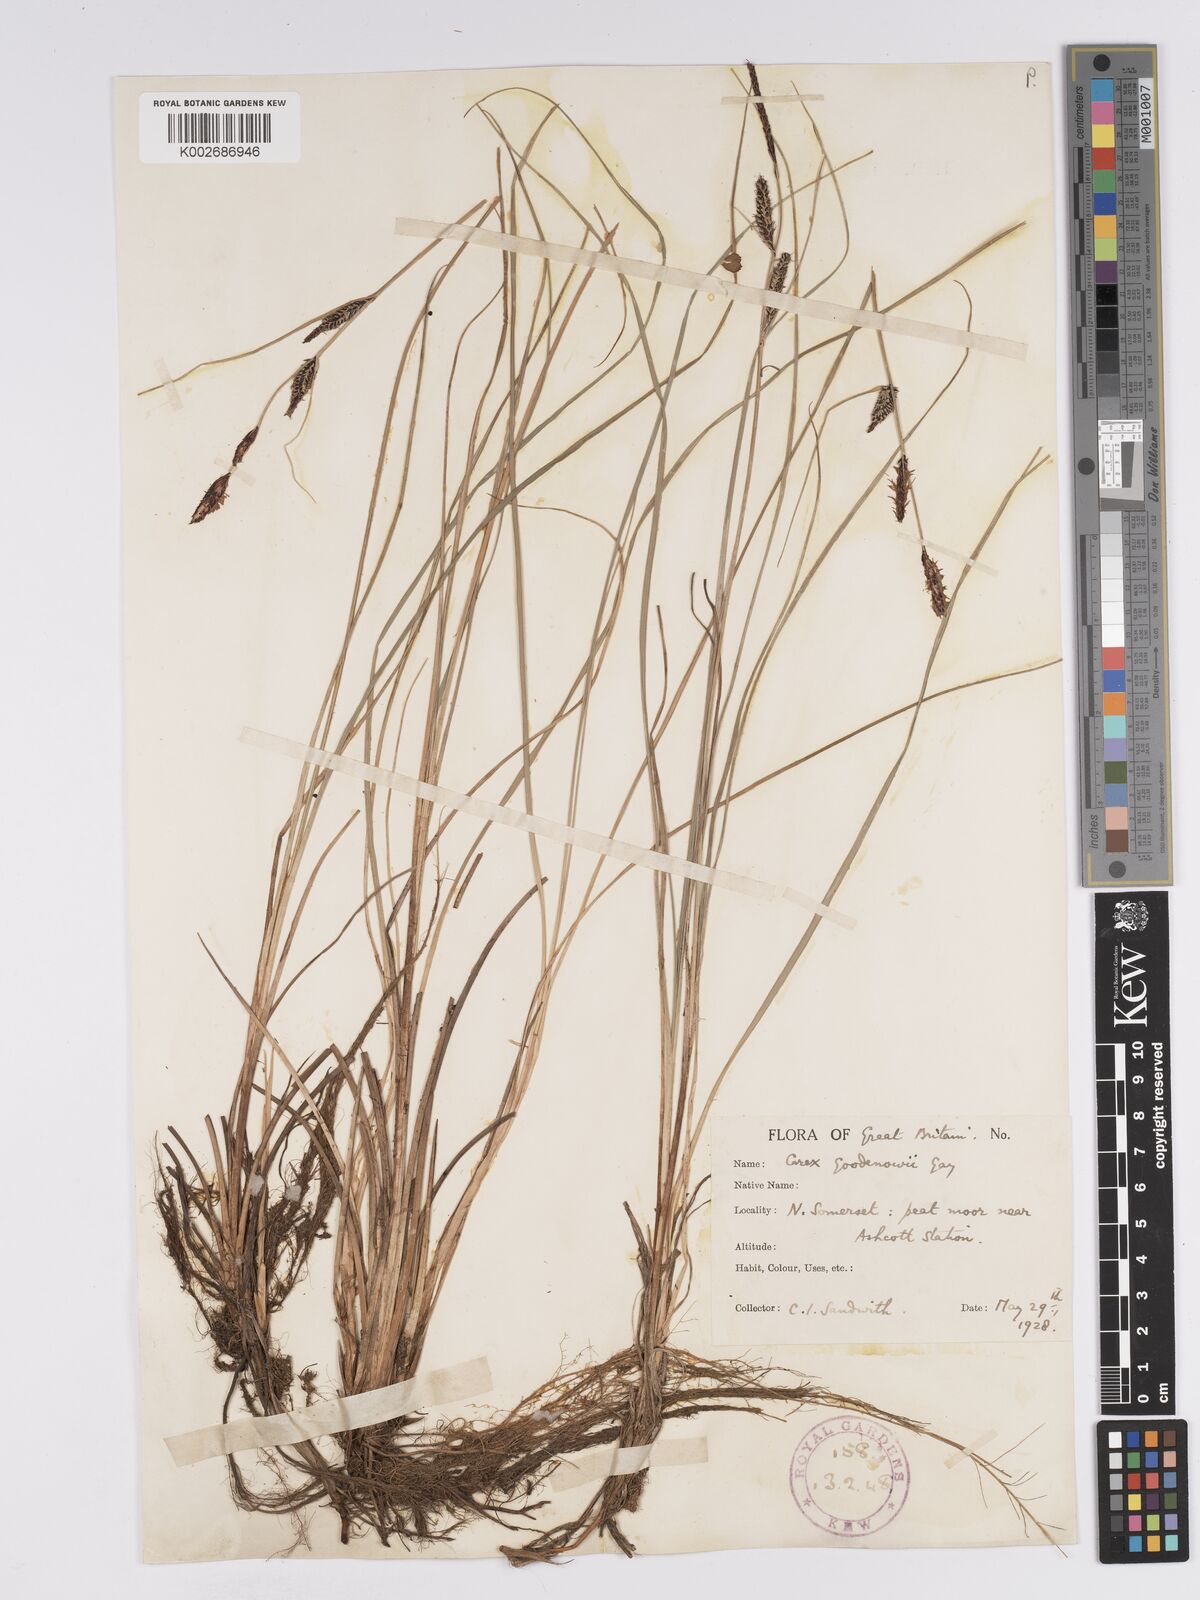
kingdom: Plantae
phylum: Tracheophyta
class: Liliopsida
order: Poales
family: Cyperaceae
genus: Carex
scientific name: Carex nigra
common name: Common sedge
